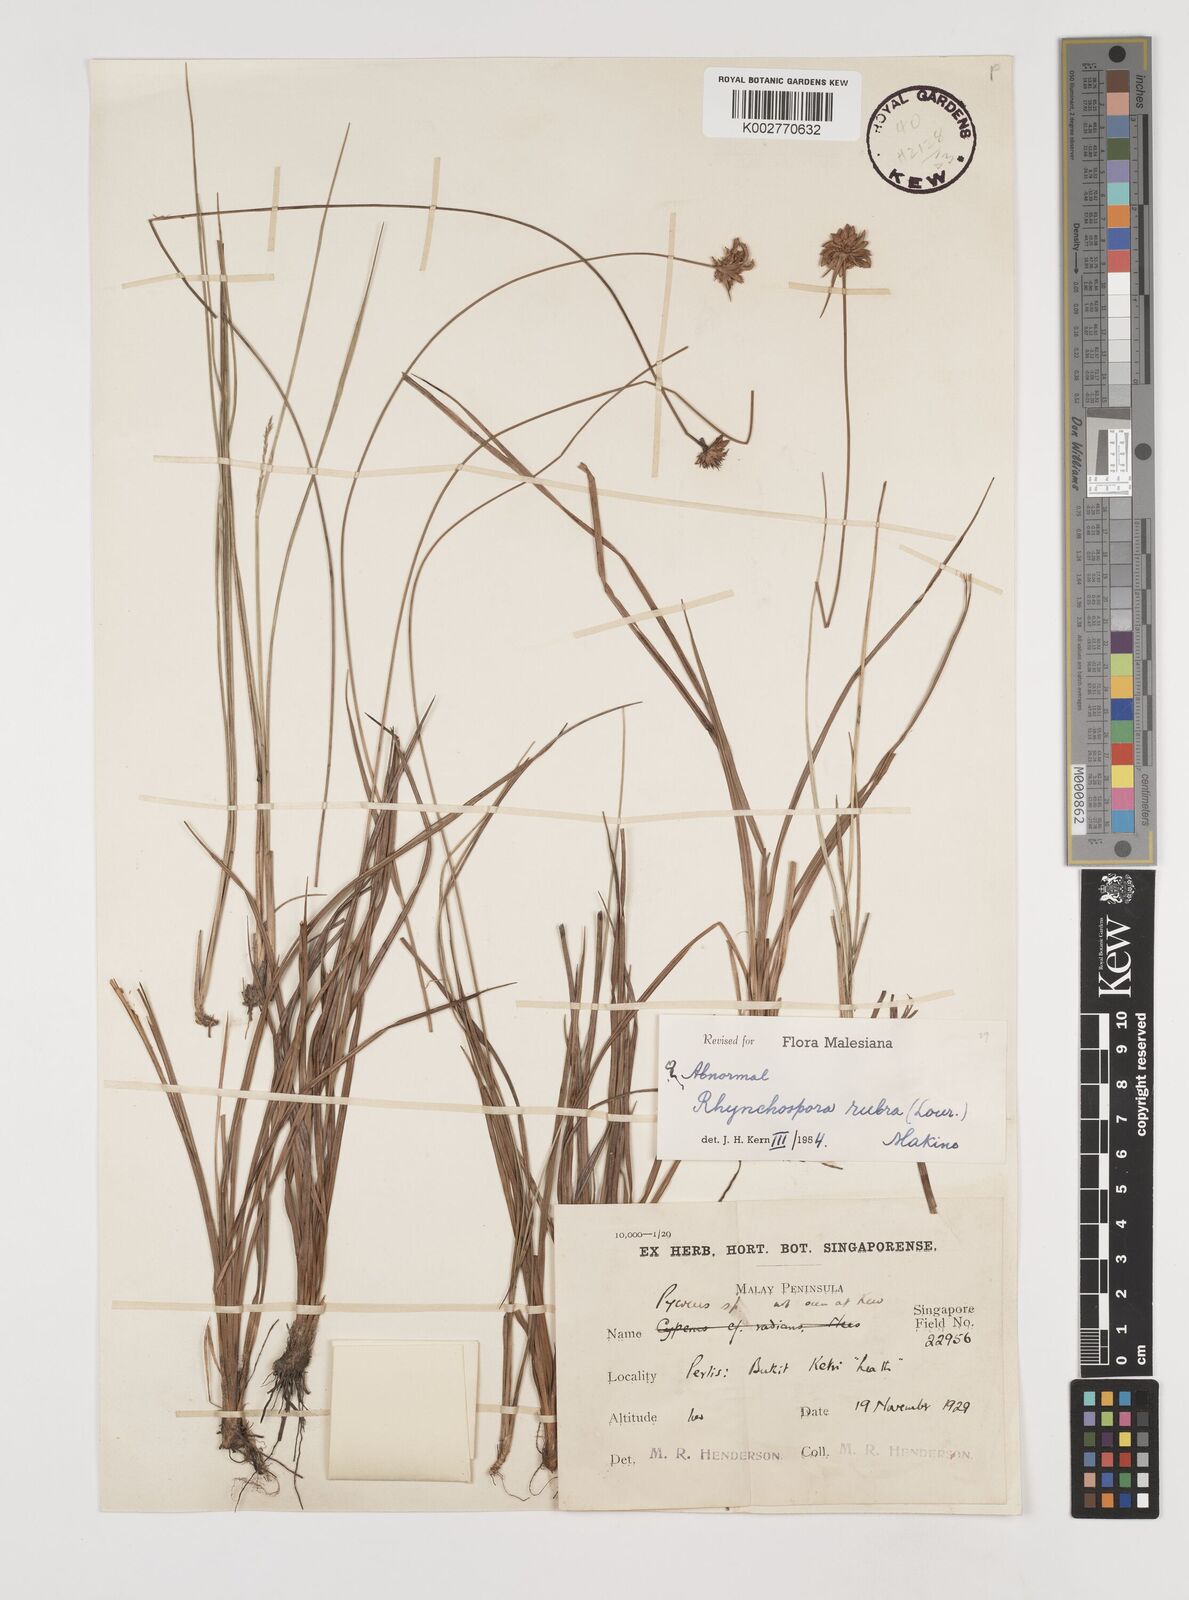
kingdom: Plantae
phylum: Tracheophyta
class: Liliopsida
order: Poales
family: Cyperaceae
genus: Rhynchospora
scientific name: Rhynchospora rubra
